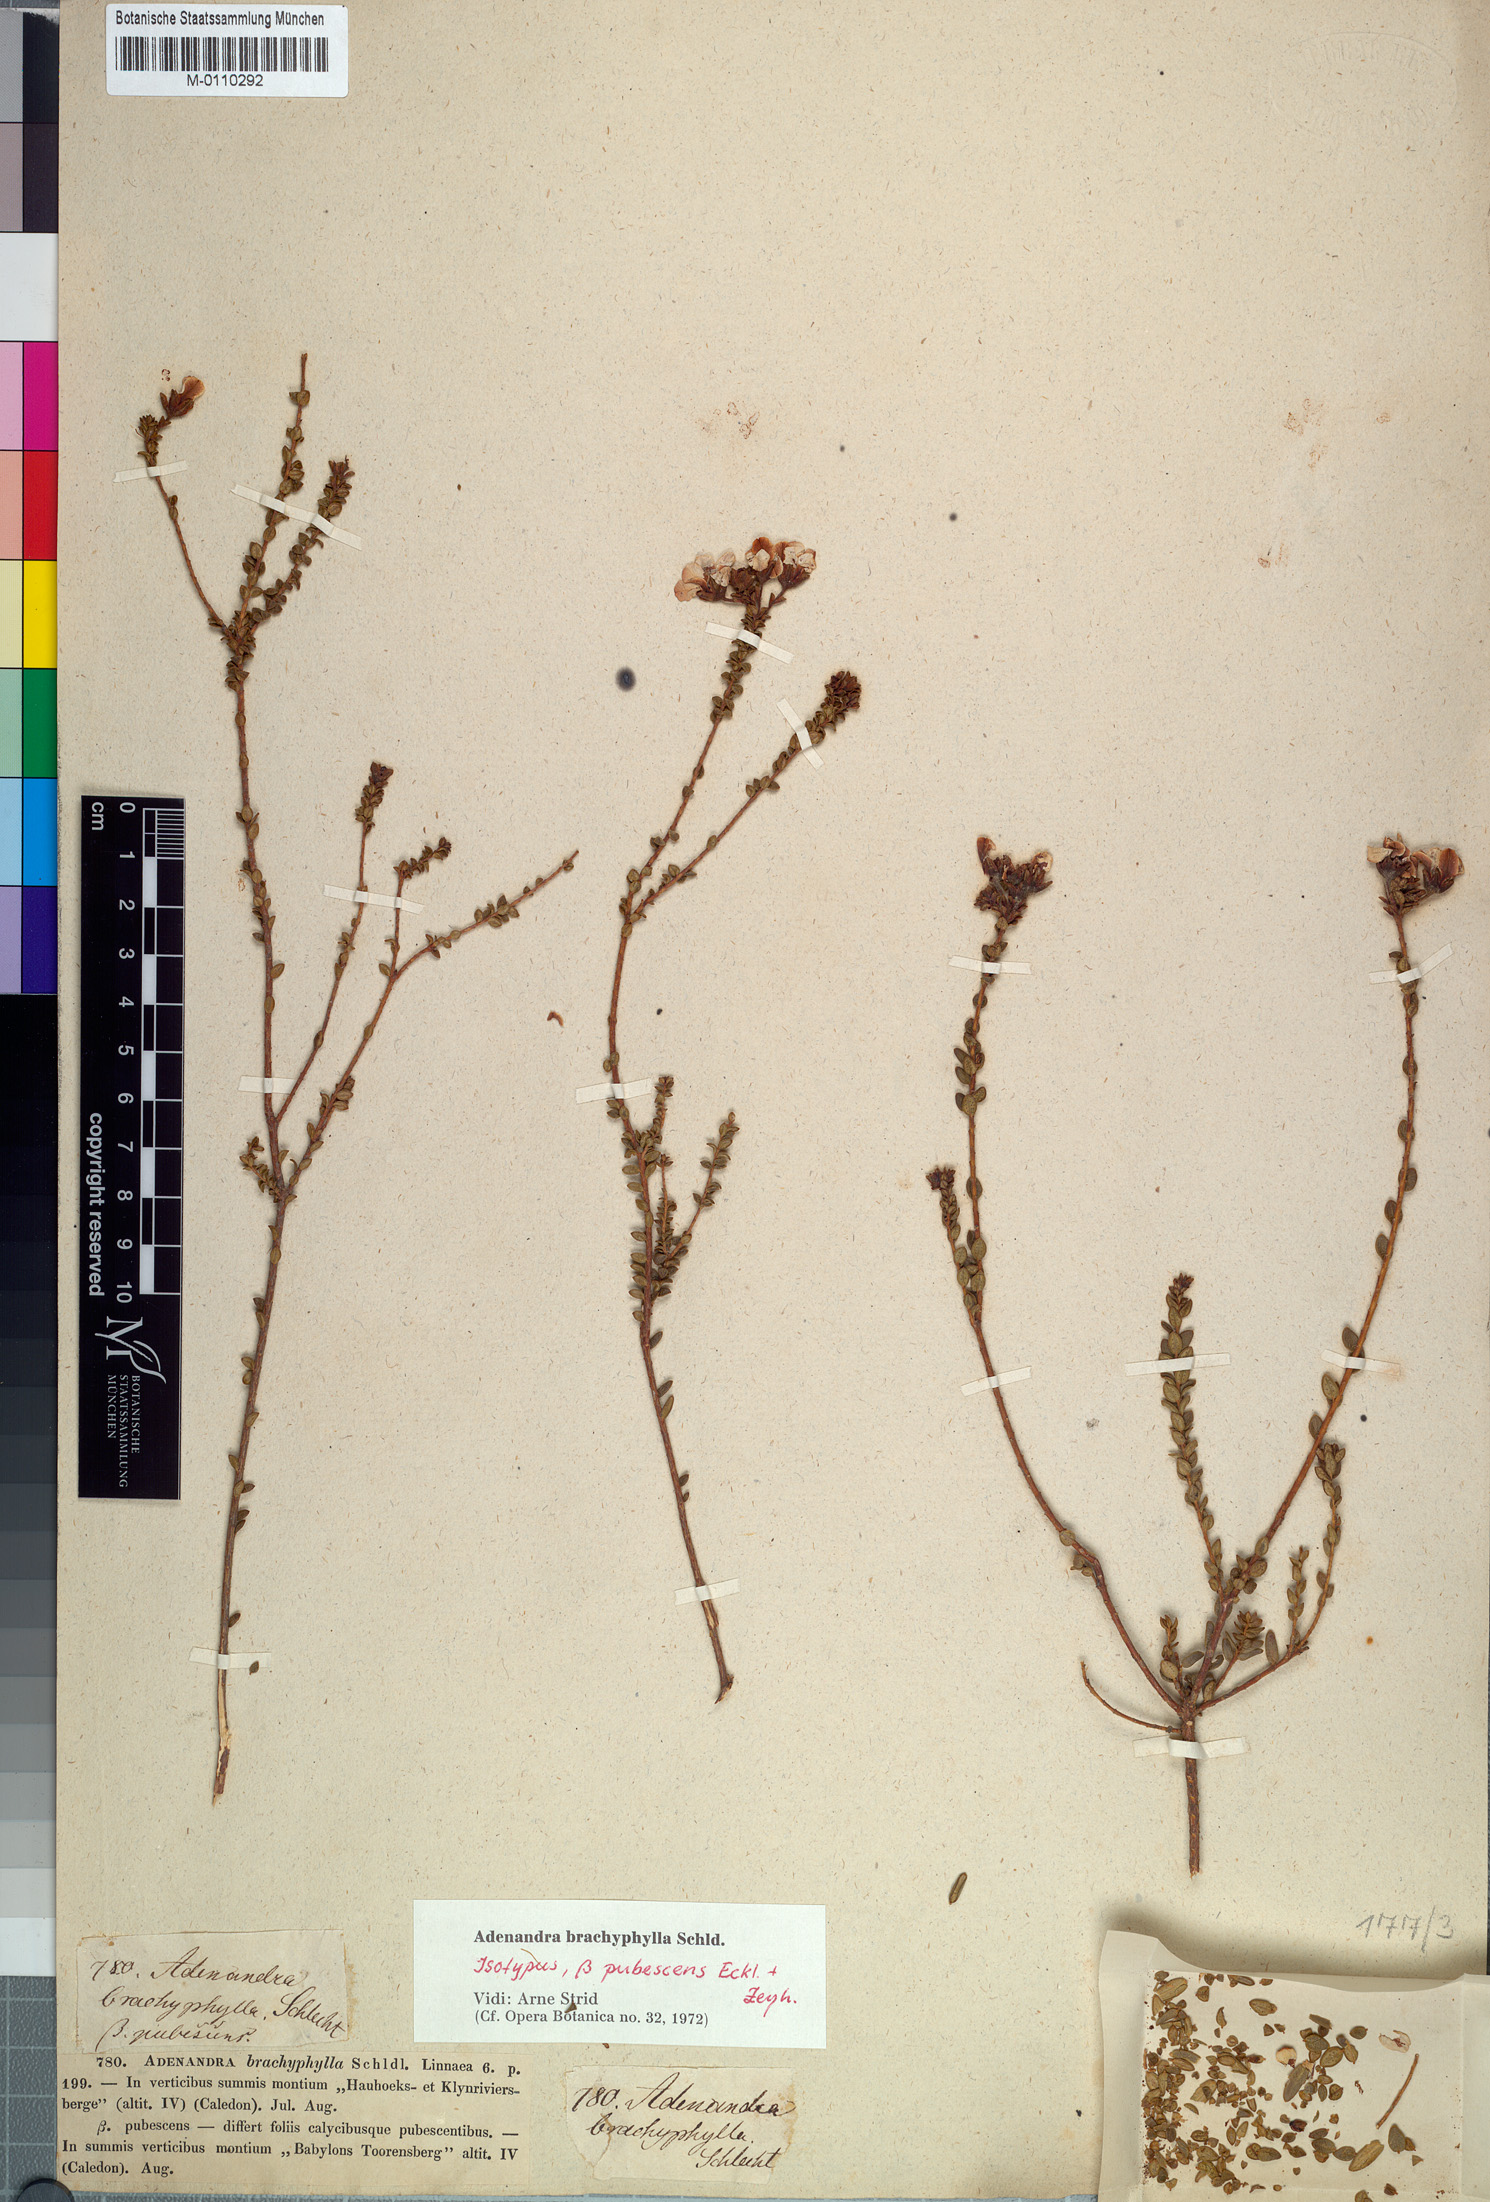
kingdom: Plantae
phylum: Tracheophyta
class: Magnoliopsida
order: Sapindales
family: Rutaceae
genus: Adenandra
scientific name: Adenandra brachyphylla
